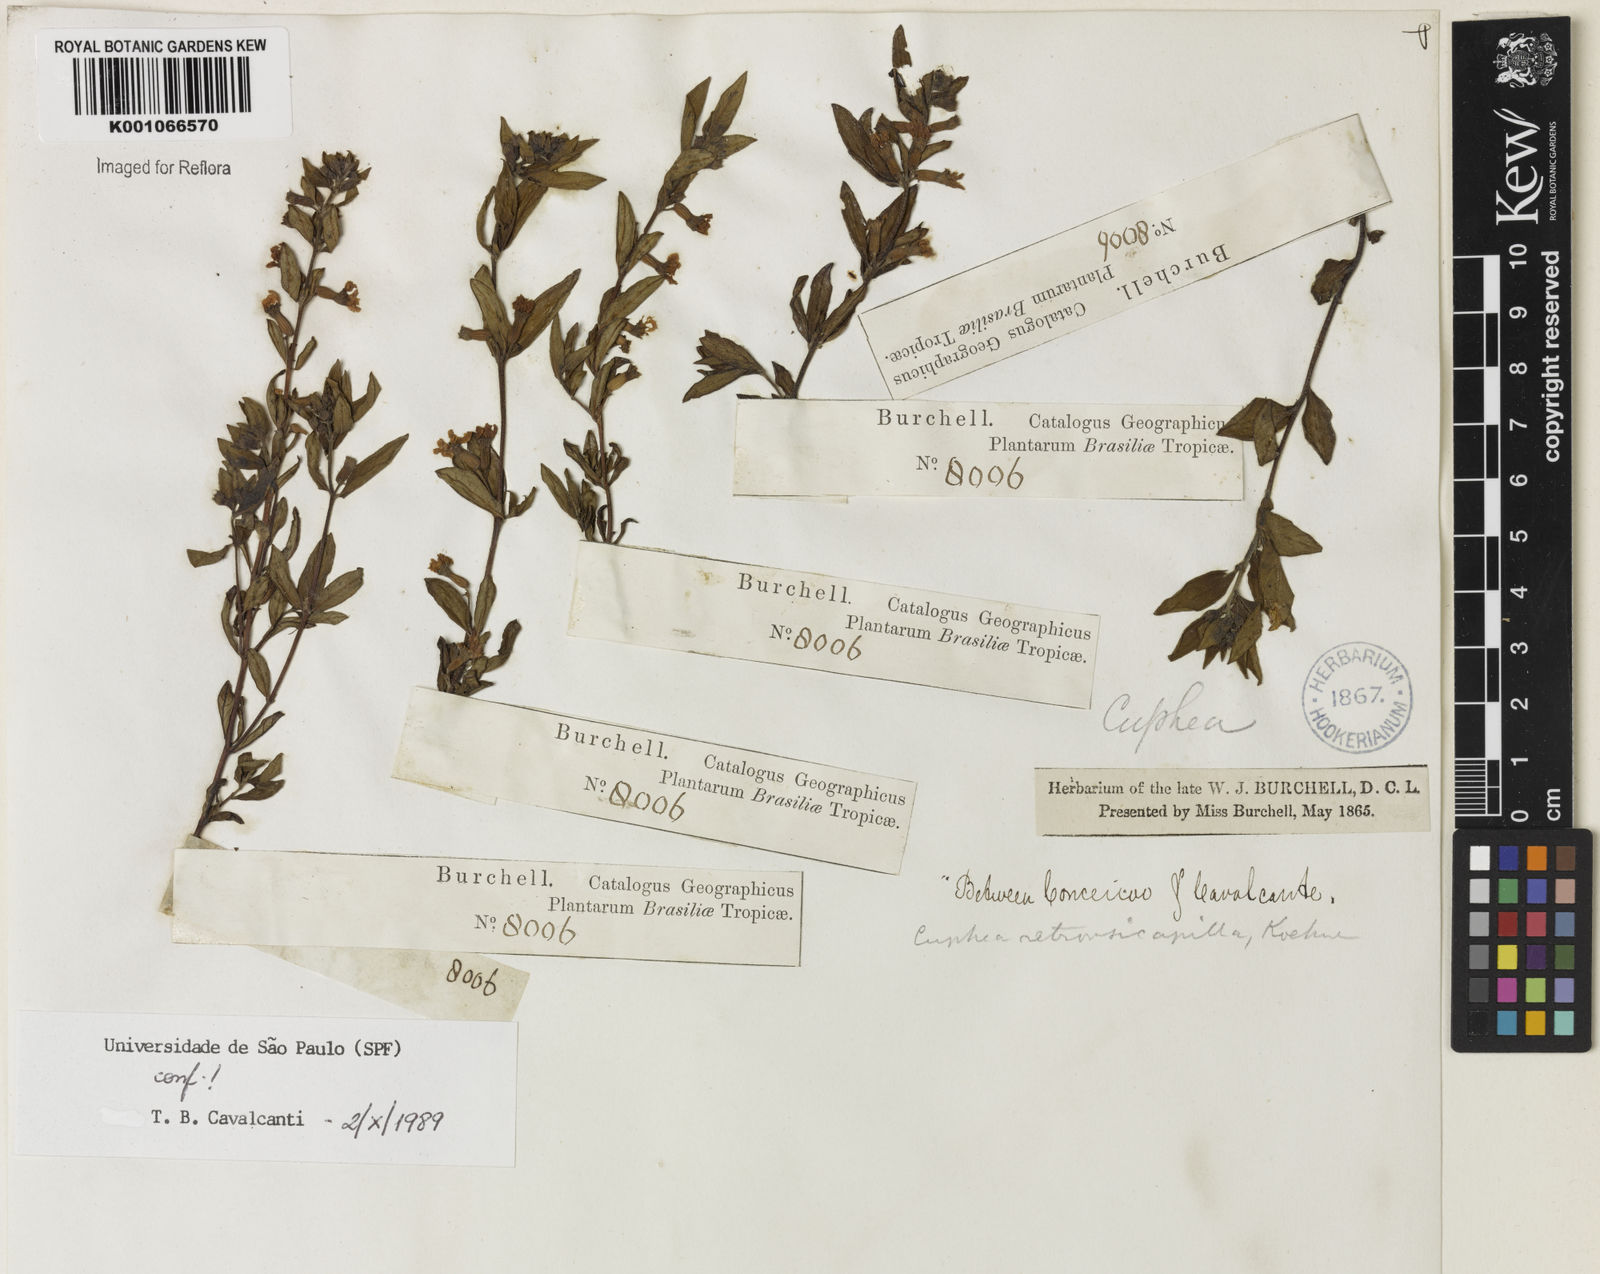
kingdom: Plantae
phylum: Tracheophyta
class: Magnoliopsida
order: Myrtales
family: Lythraceae
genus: Cuphea
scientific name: Cuphea retrorsicapilla
